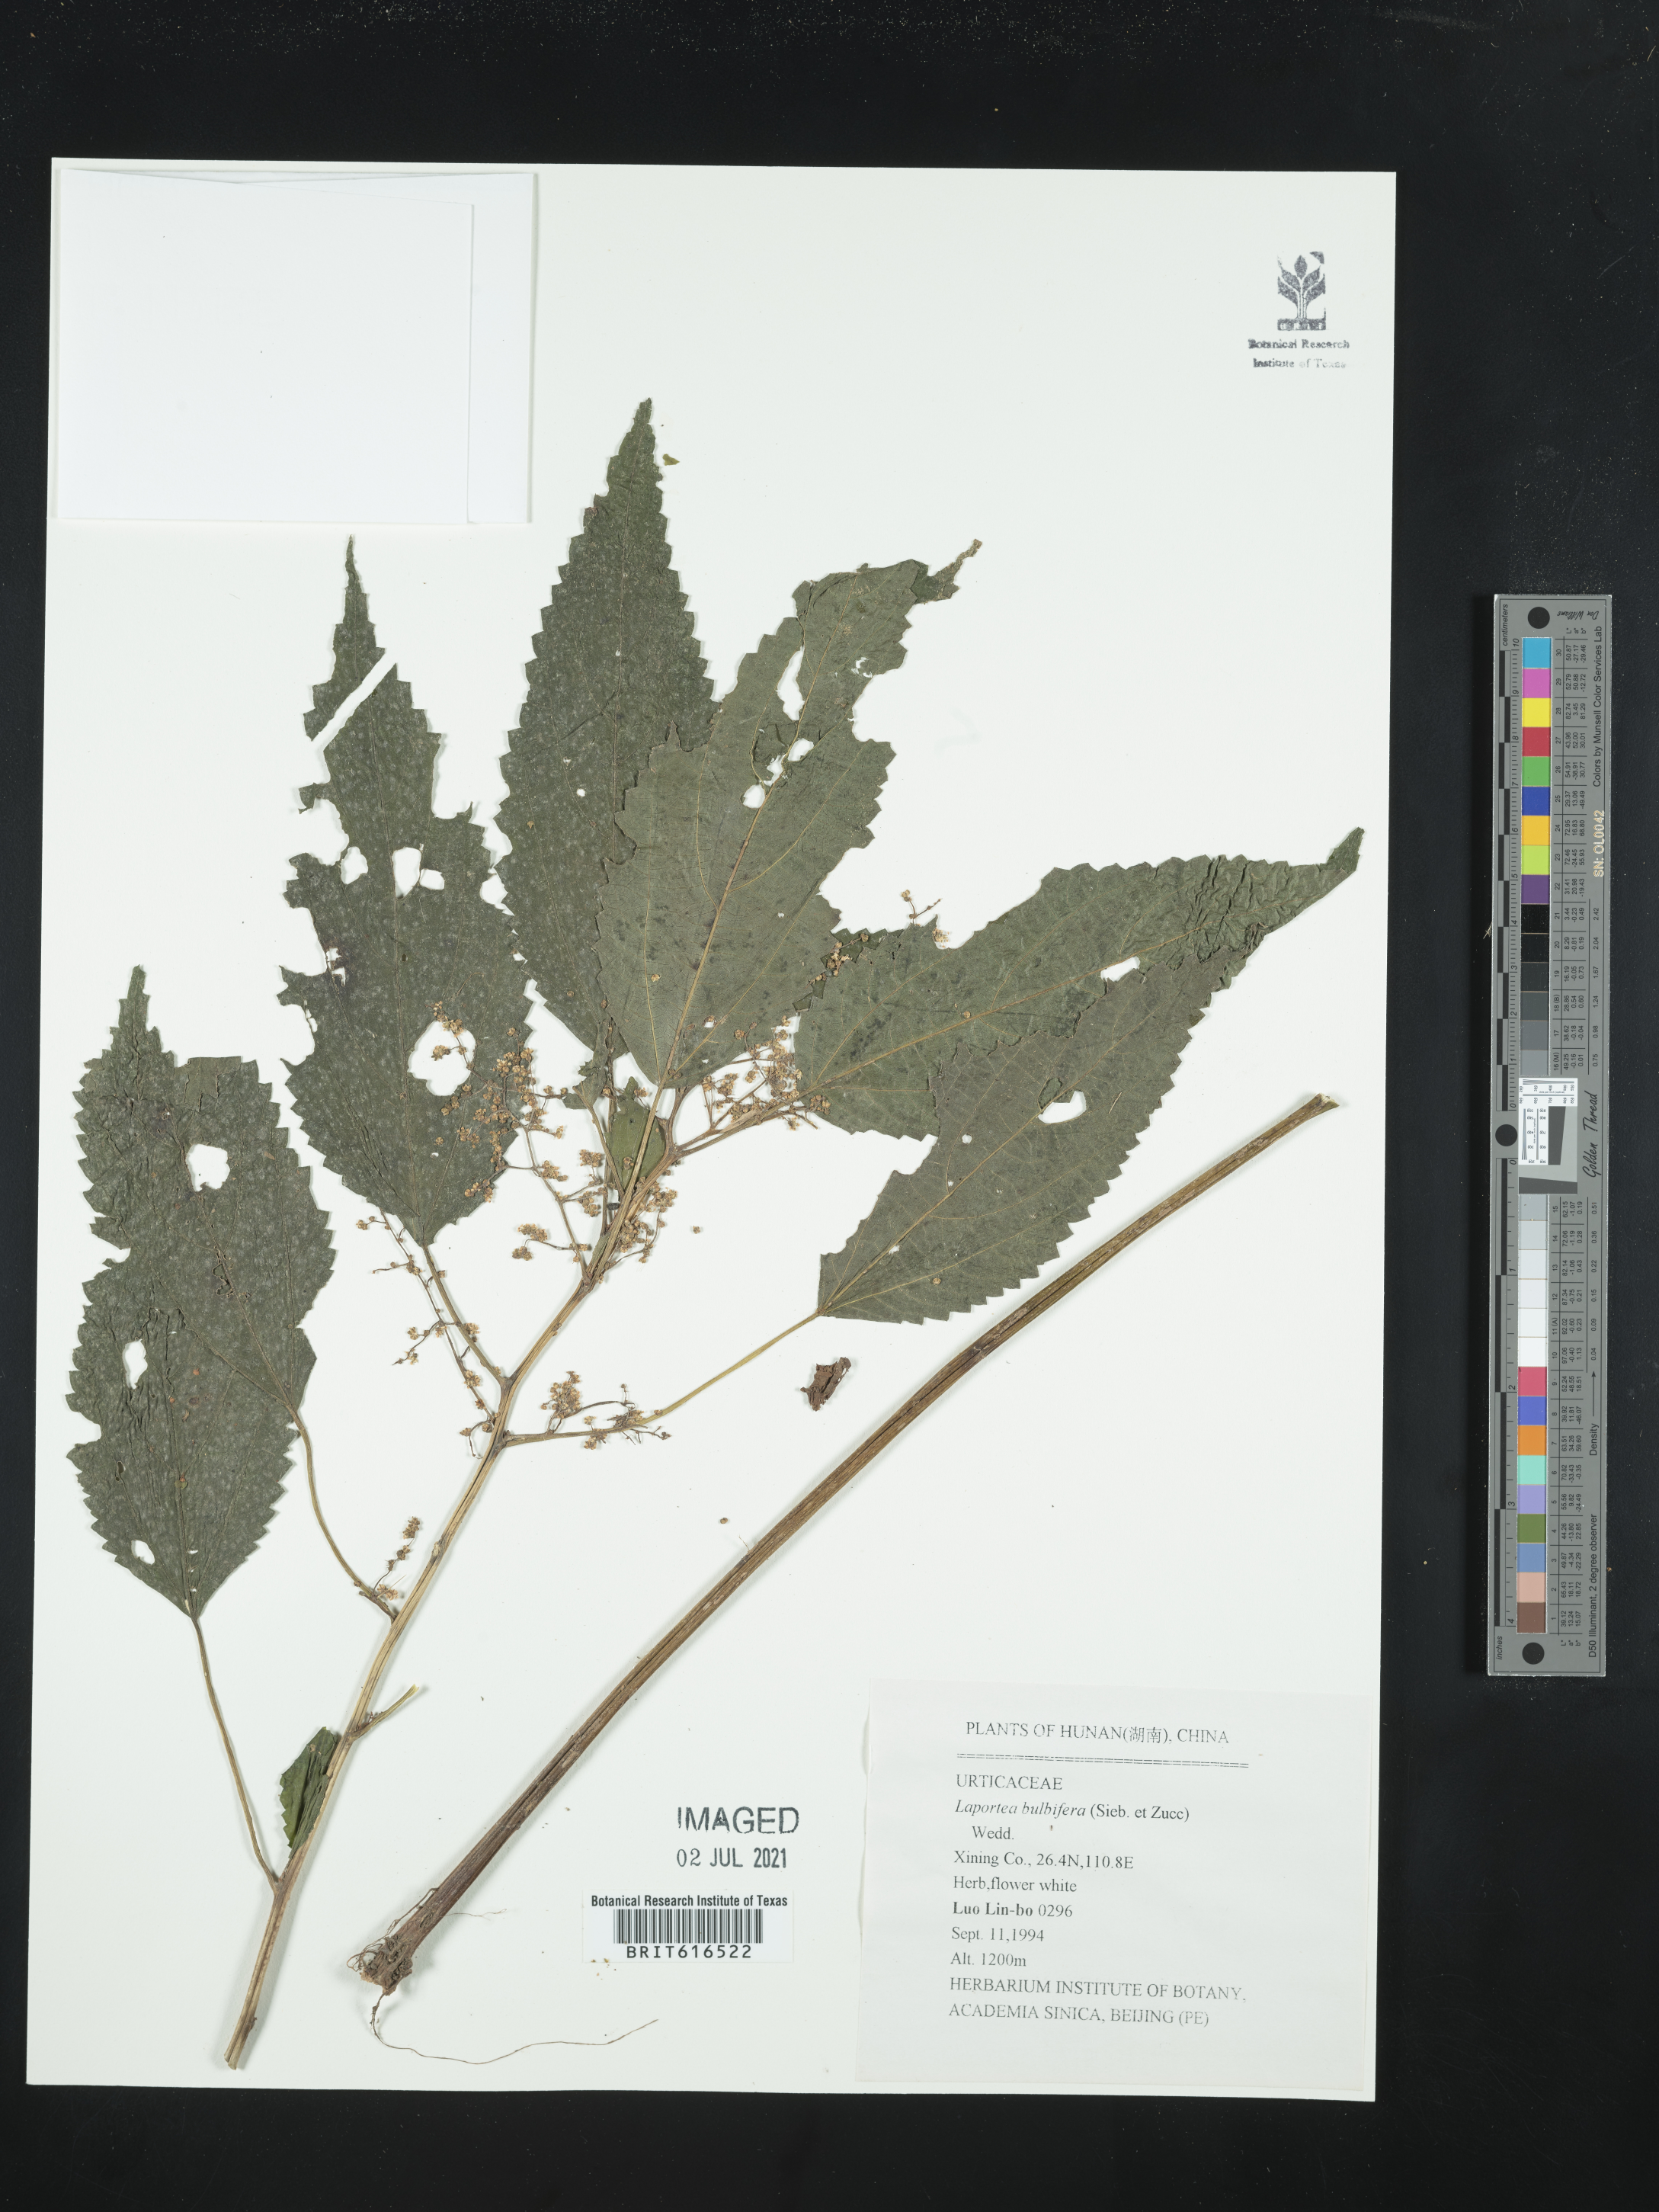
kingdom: Plantae
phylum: Tracheophyta
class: Magnoliopsida
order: Rosales
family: Urticaceae
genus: Laportea
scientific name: Laportea bulbifera
